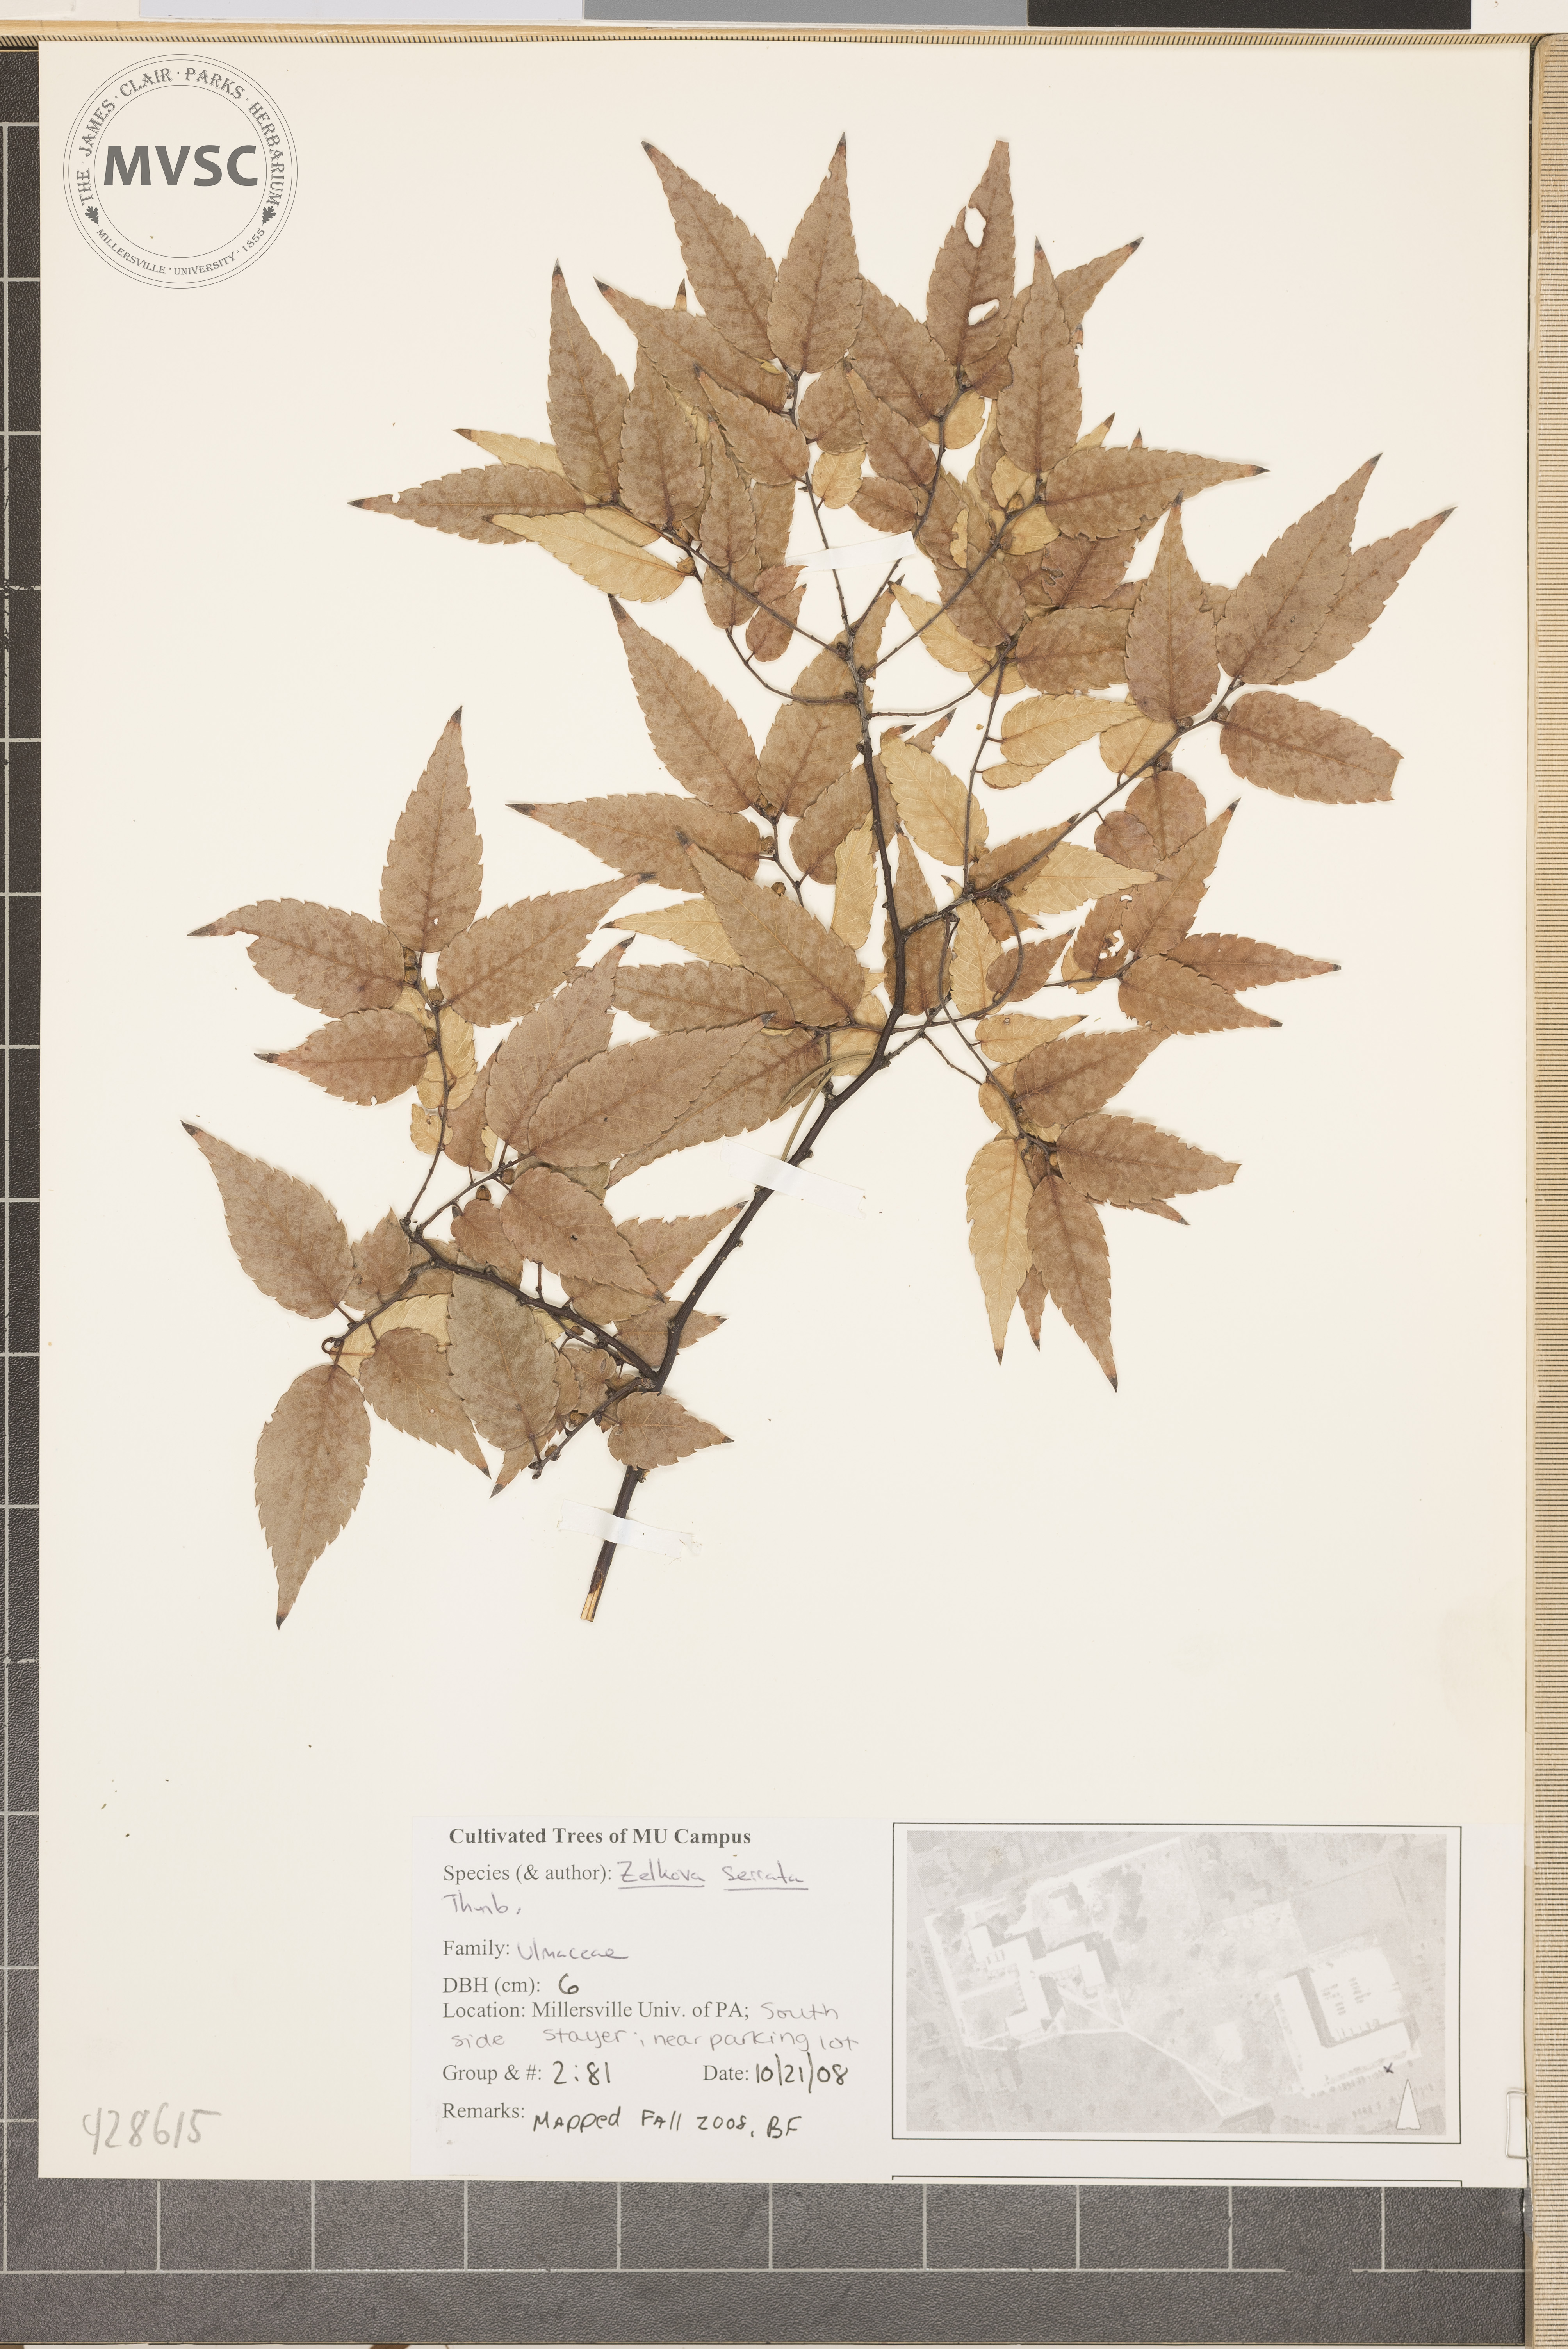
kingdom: Plantae
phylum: Tracheophyta
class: Magnoliopsida
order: Rosales
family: Ulmaceae
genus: Zelkova
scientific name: Zelkova serrata
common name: Japanese Zelkova
